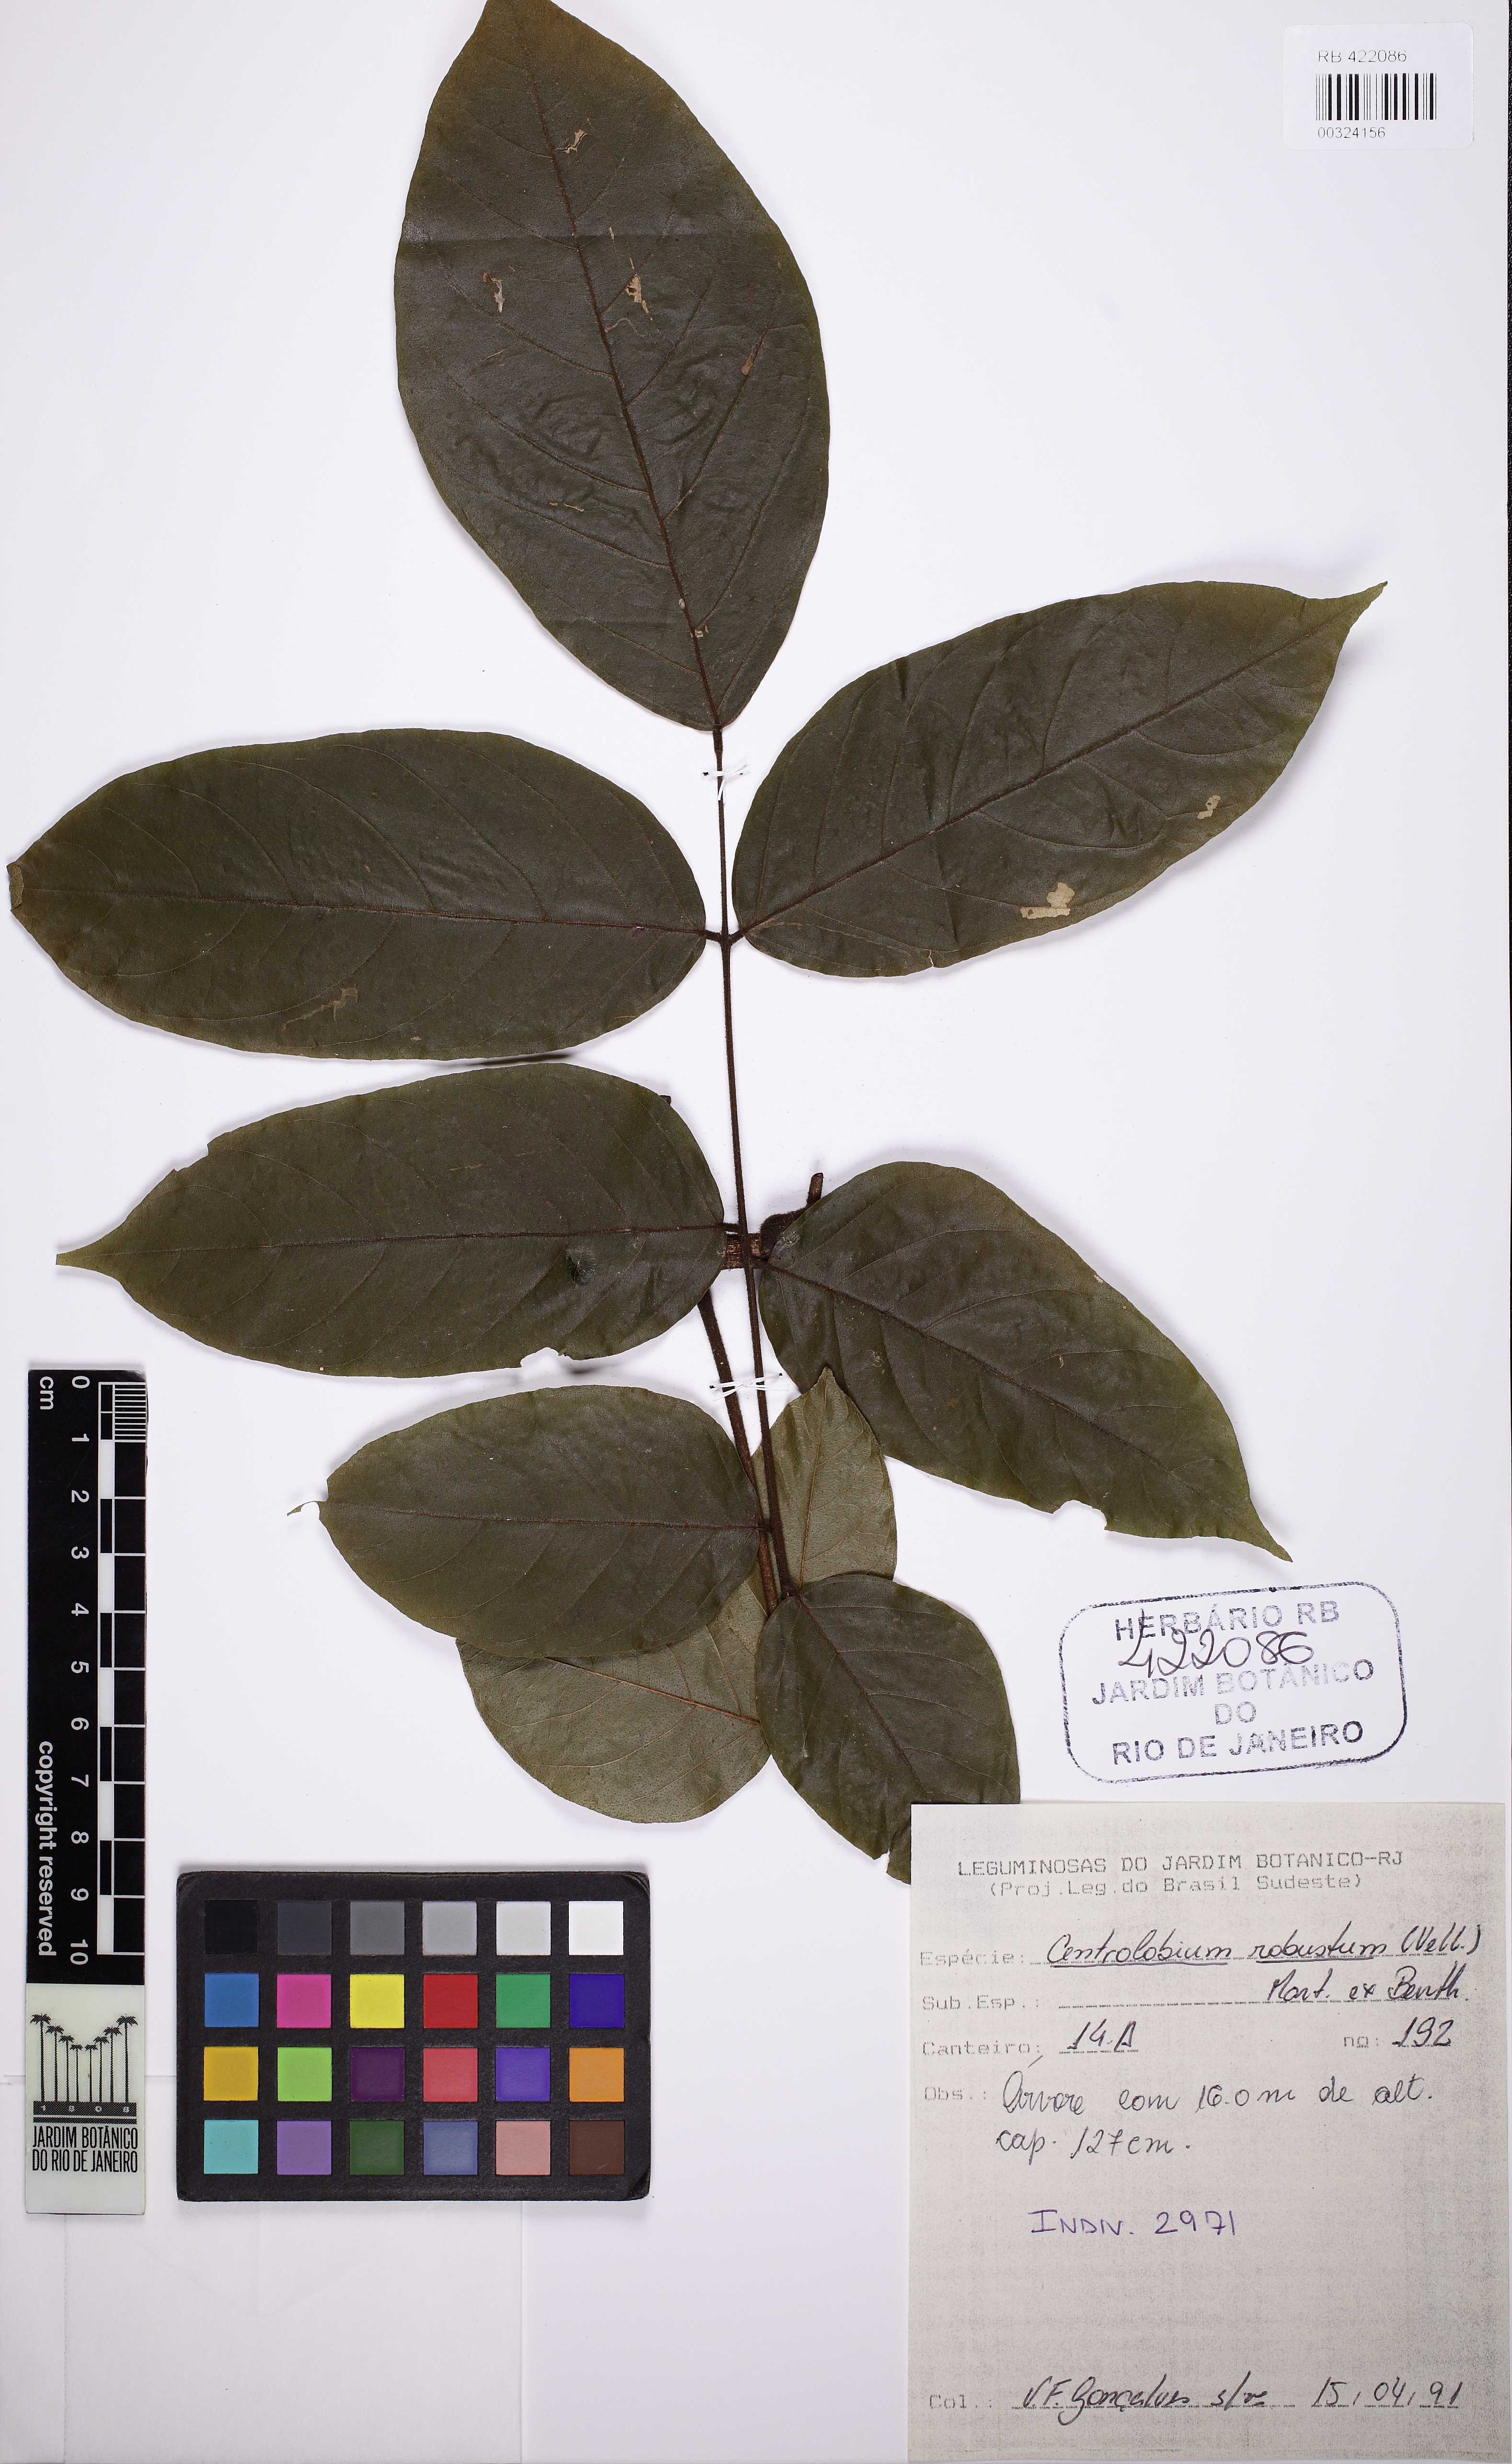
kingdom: Plantae
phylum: Tracheophyta
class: Magnoliopsida
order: Fabales
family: Fabaceae
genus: Centrolobium
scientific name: Centrolobium robustum
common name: Zebrawood
